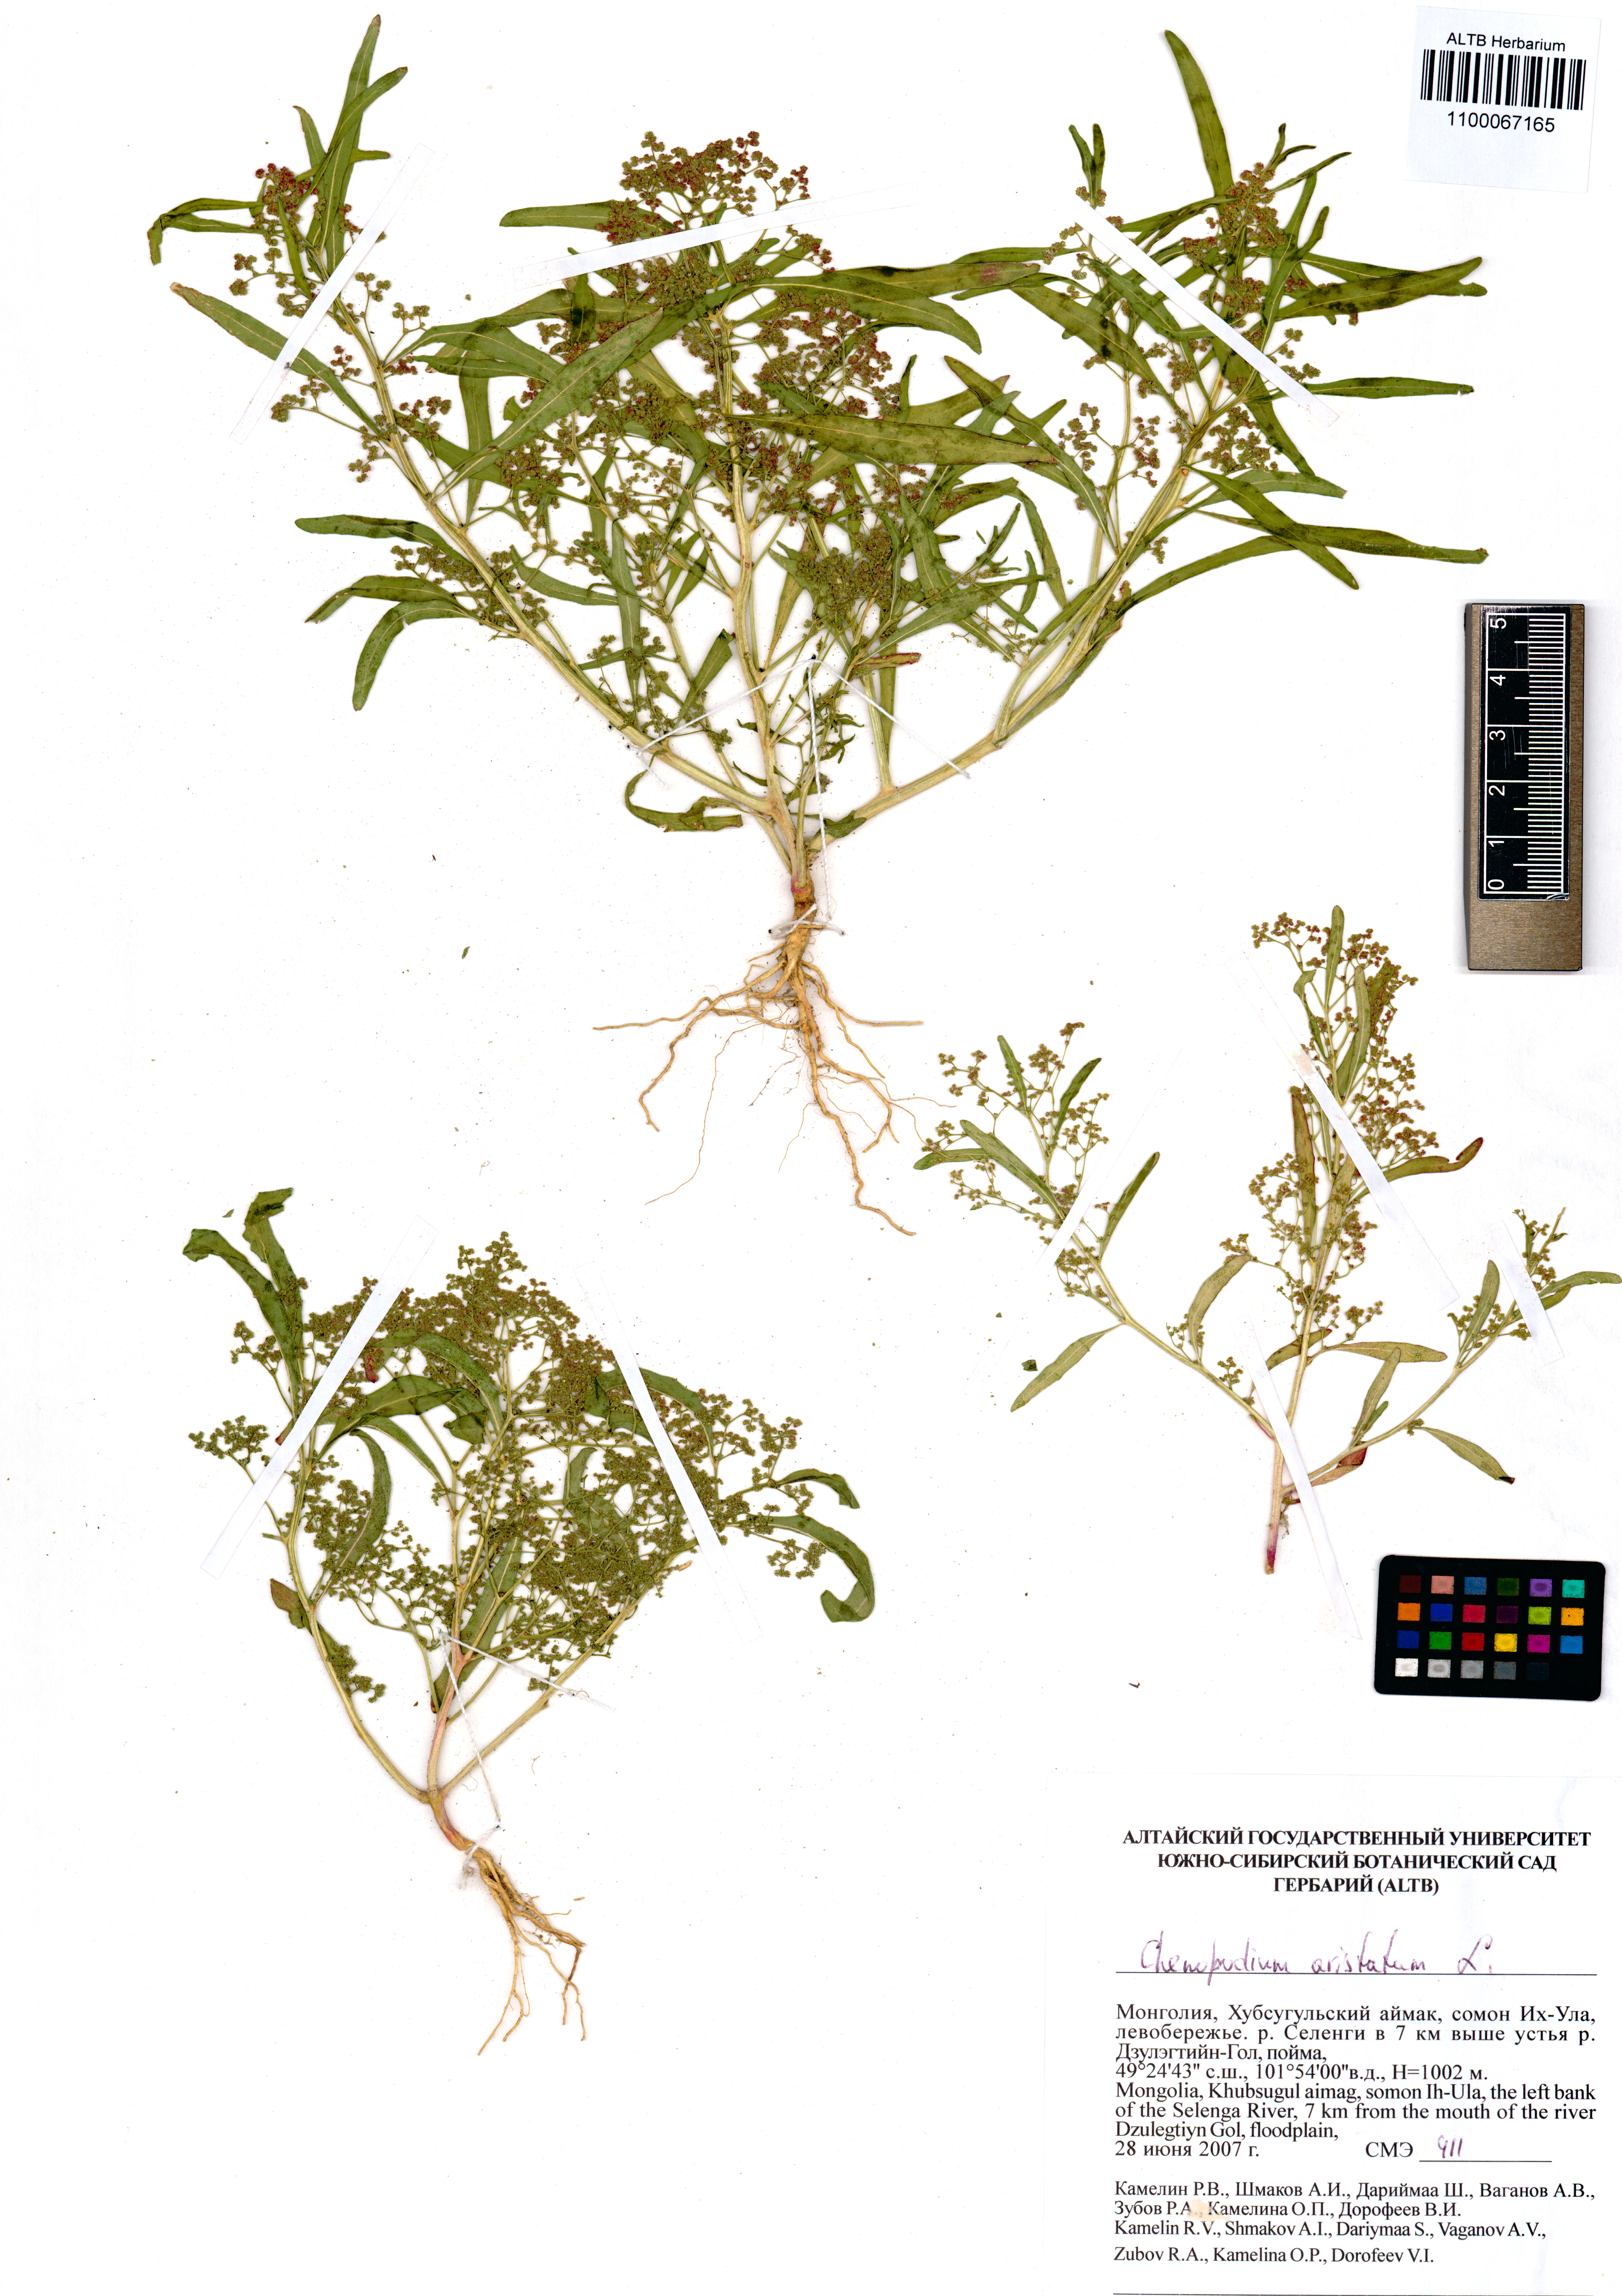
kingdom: Plantae
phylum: Tracheophyta
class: Magnoliopsida
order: Caryophyllales
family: Amaranthaceae
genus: Teloxys
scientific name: Teloxys aristata
